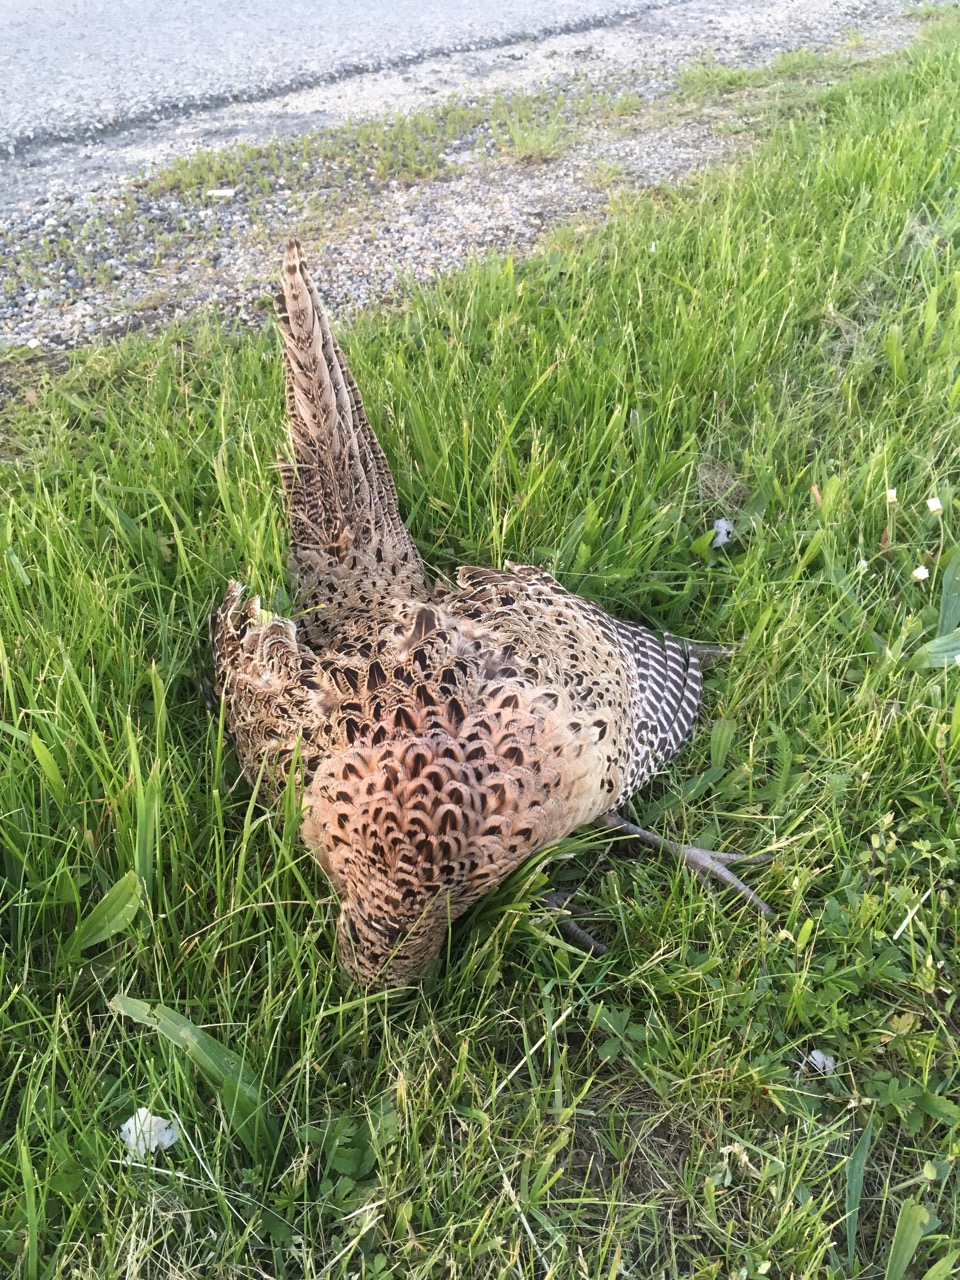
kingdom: Animalia
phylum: Chordata
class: Aves
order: Galliformes
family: Phasianidae
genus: Phasianus
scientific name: Phasianus colchicus
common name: Common pheasant
